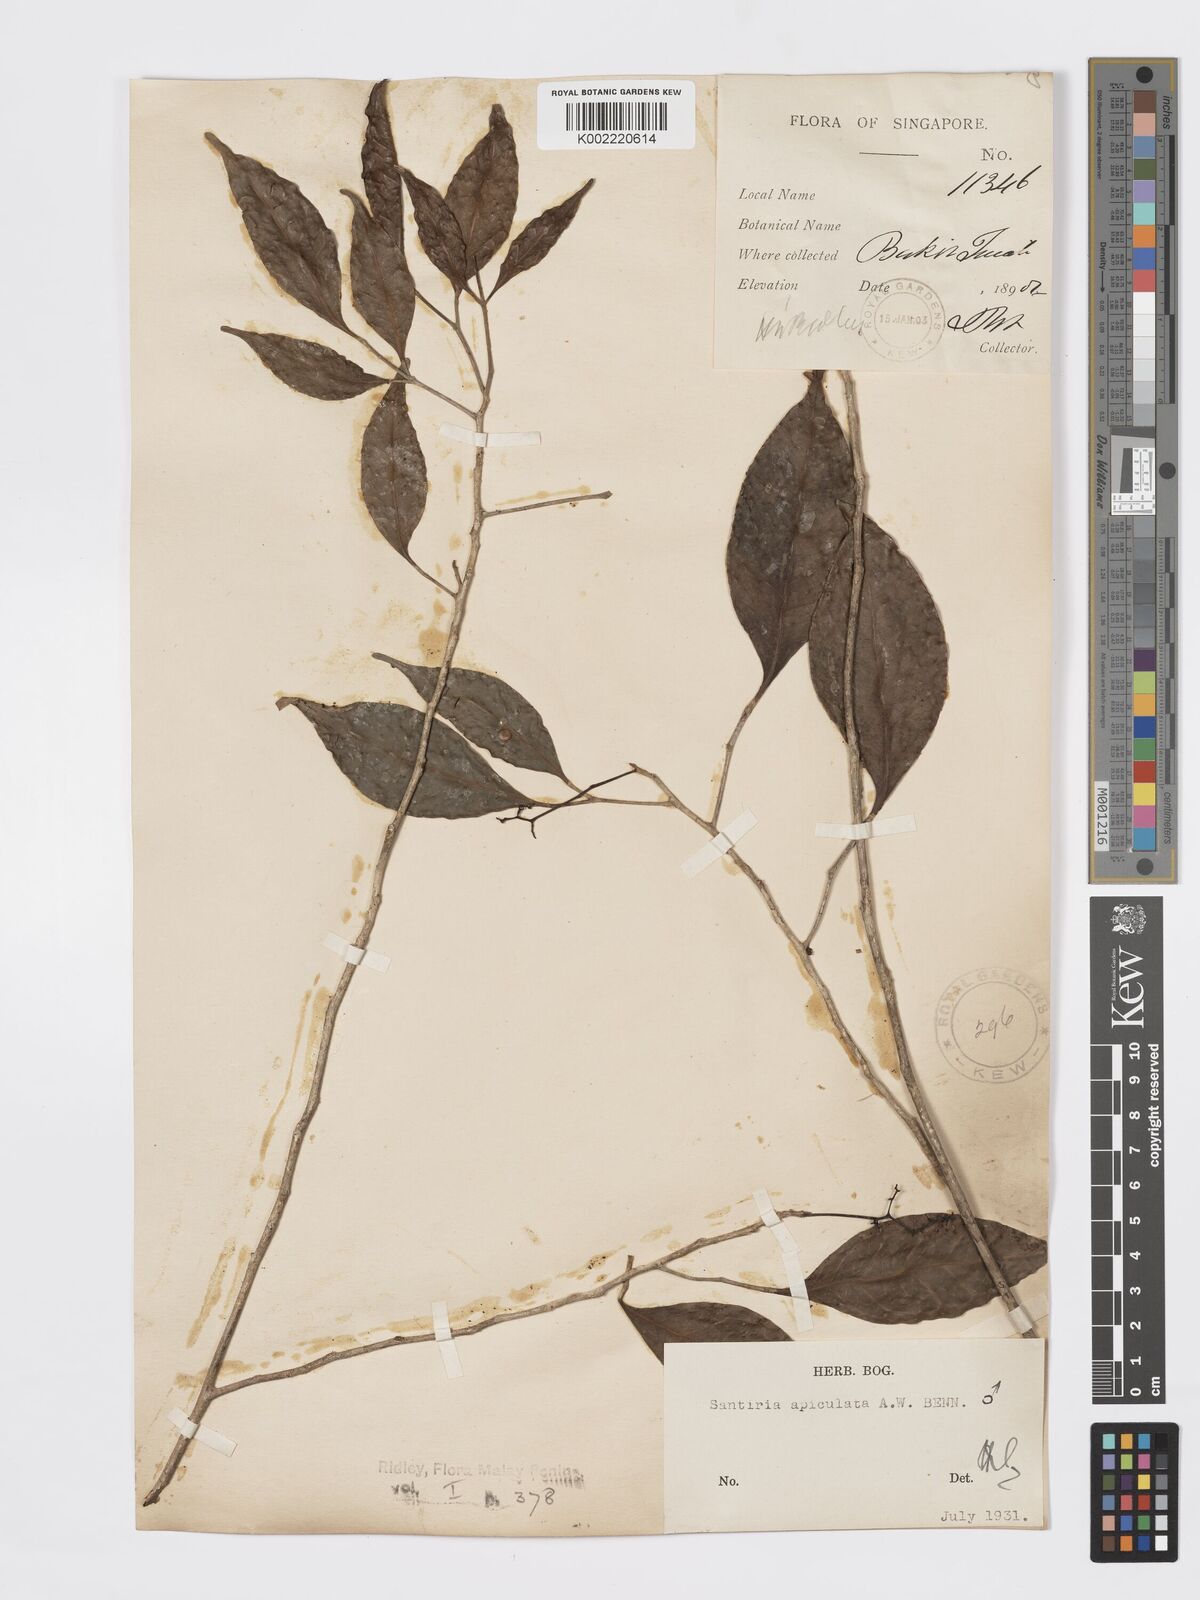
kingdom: Plantae
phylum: Tracheophyta
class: Magnoliopsida
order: Sapindales
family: Burseraceae
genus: Santiria
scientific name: Santiria apiculata
